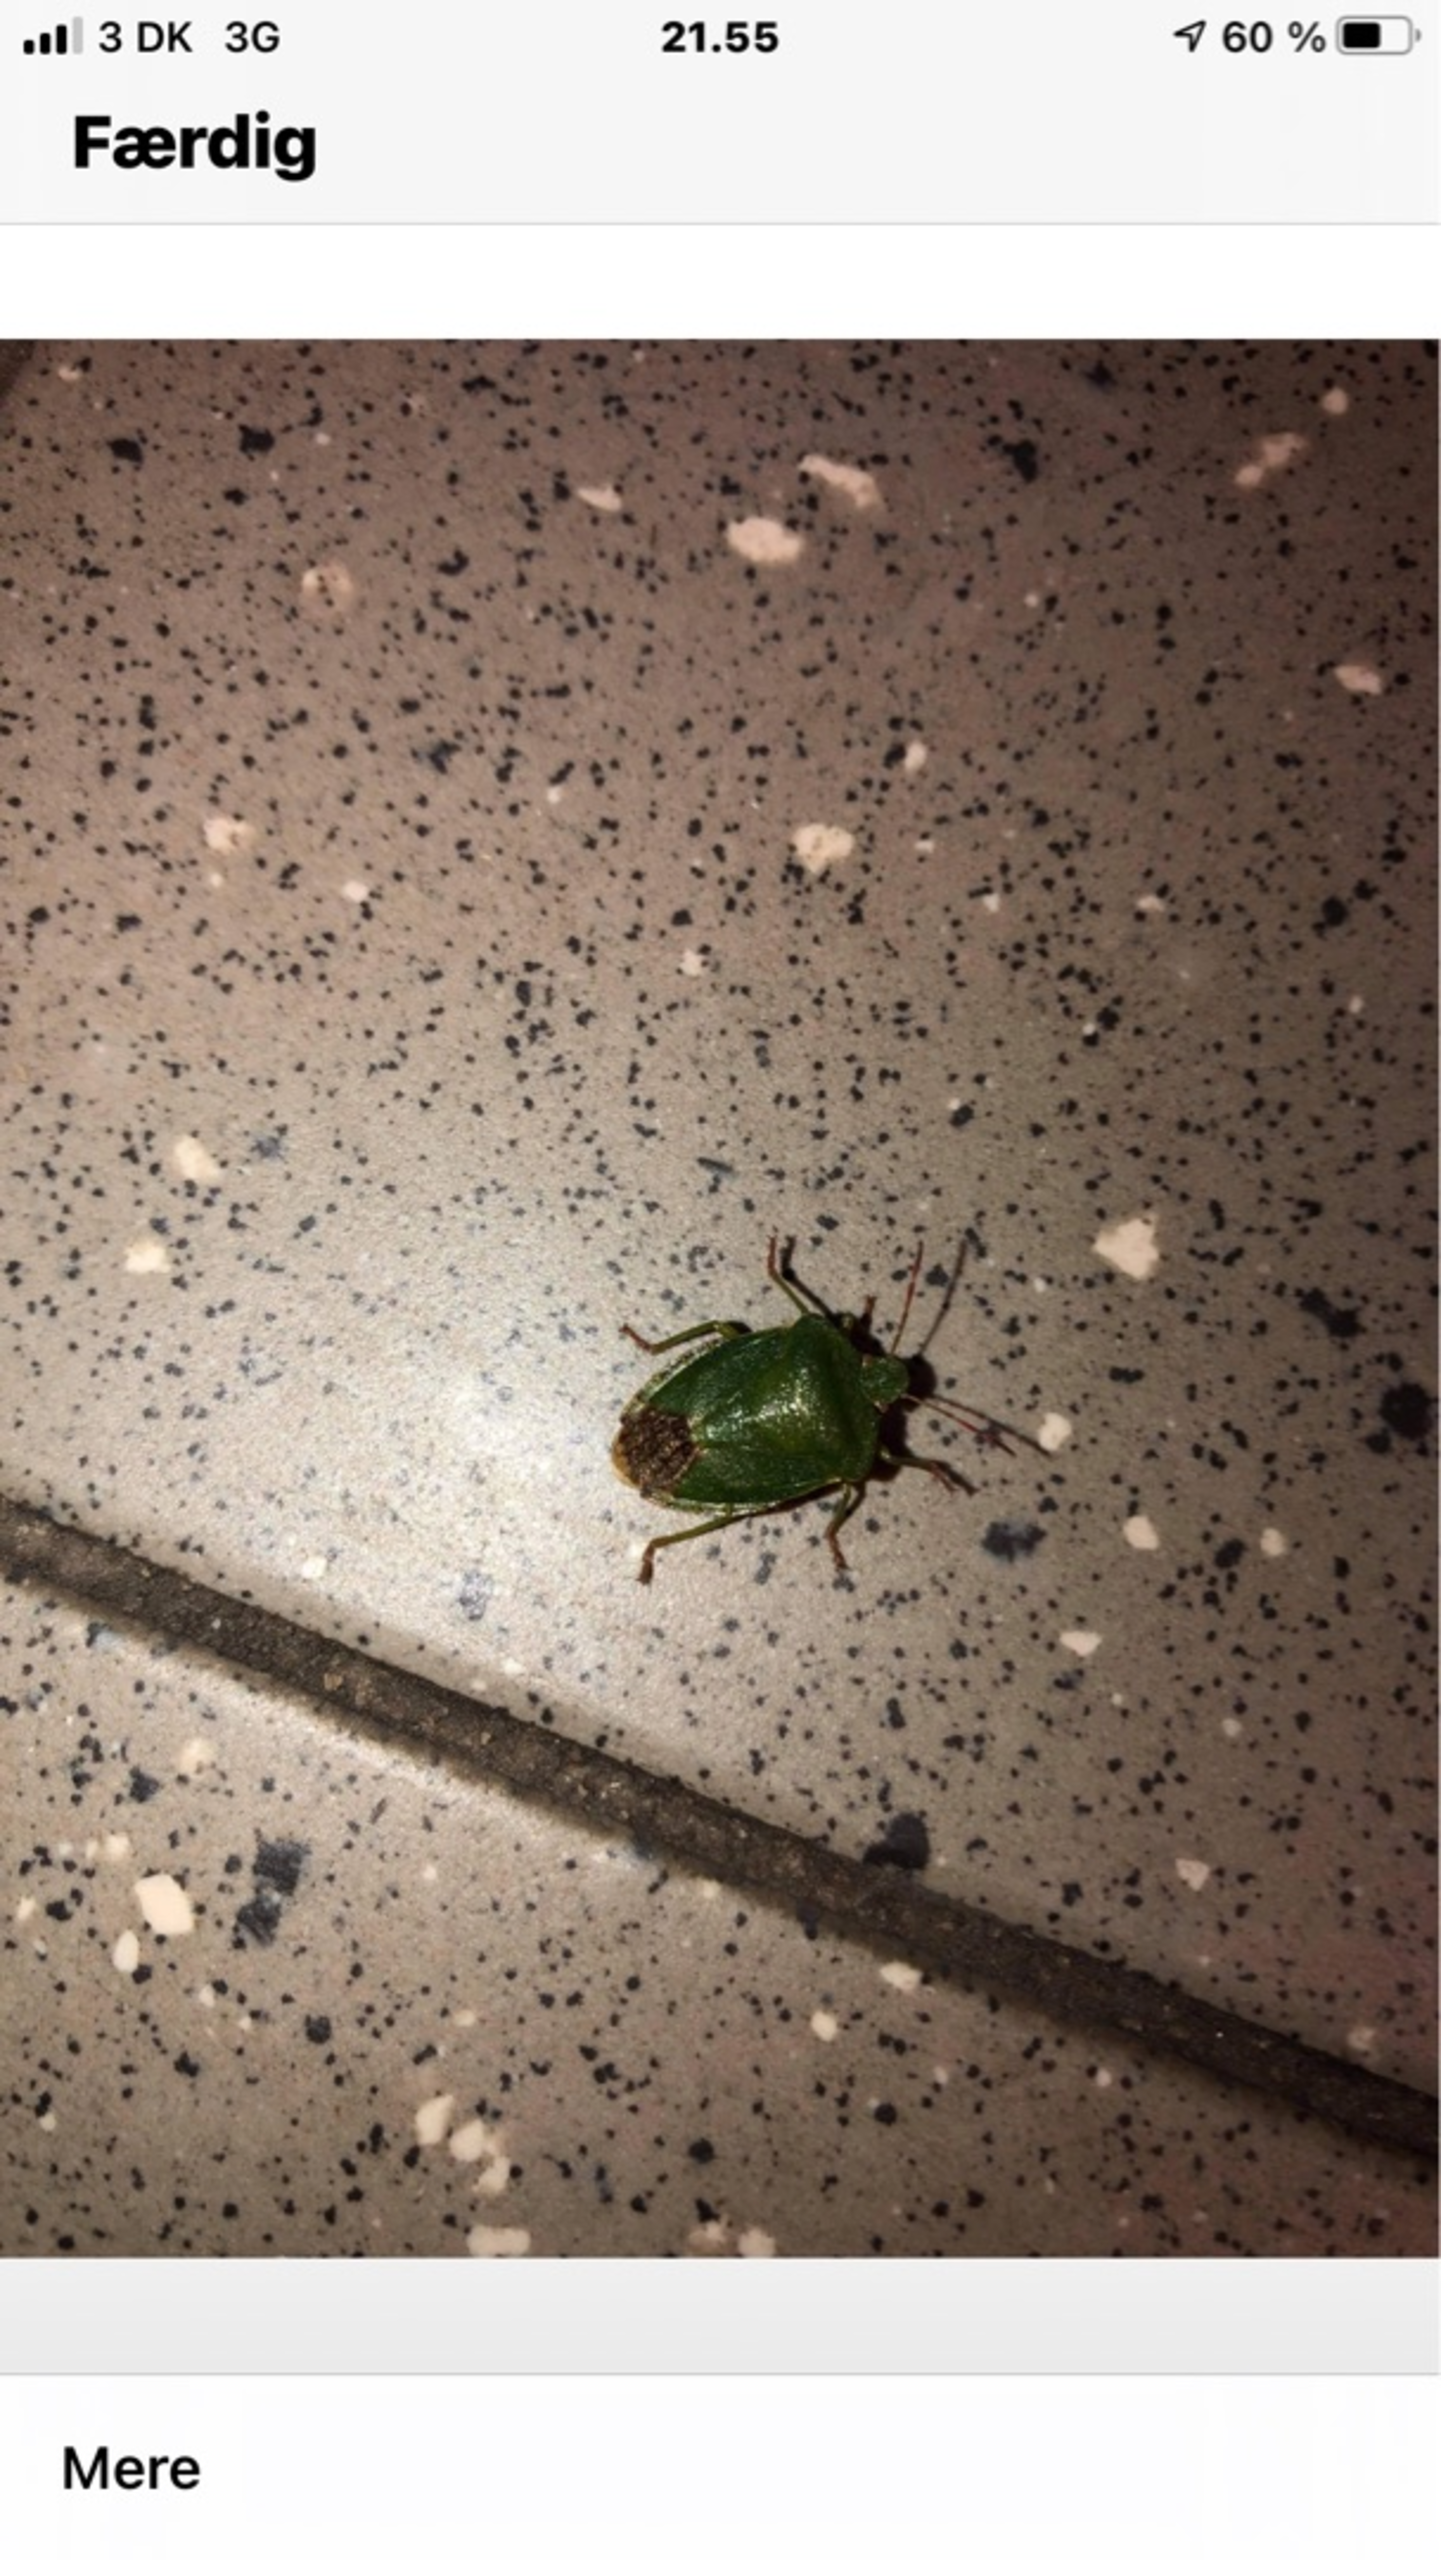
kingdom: Animalia
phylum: Arthropoda
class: Insecta
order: Hemiptera
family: Pentatomidae
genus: Palomena
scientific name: Palomena prasina
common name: Grøn bredtæge
